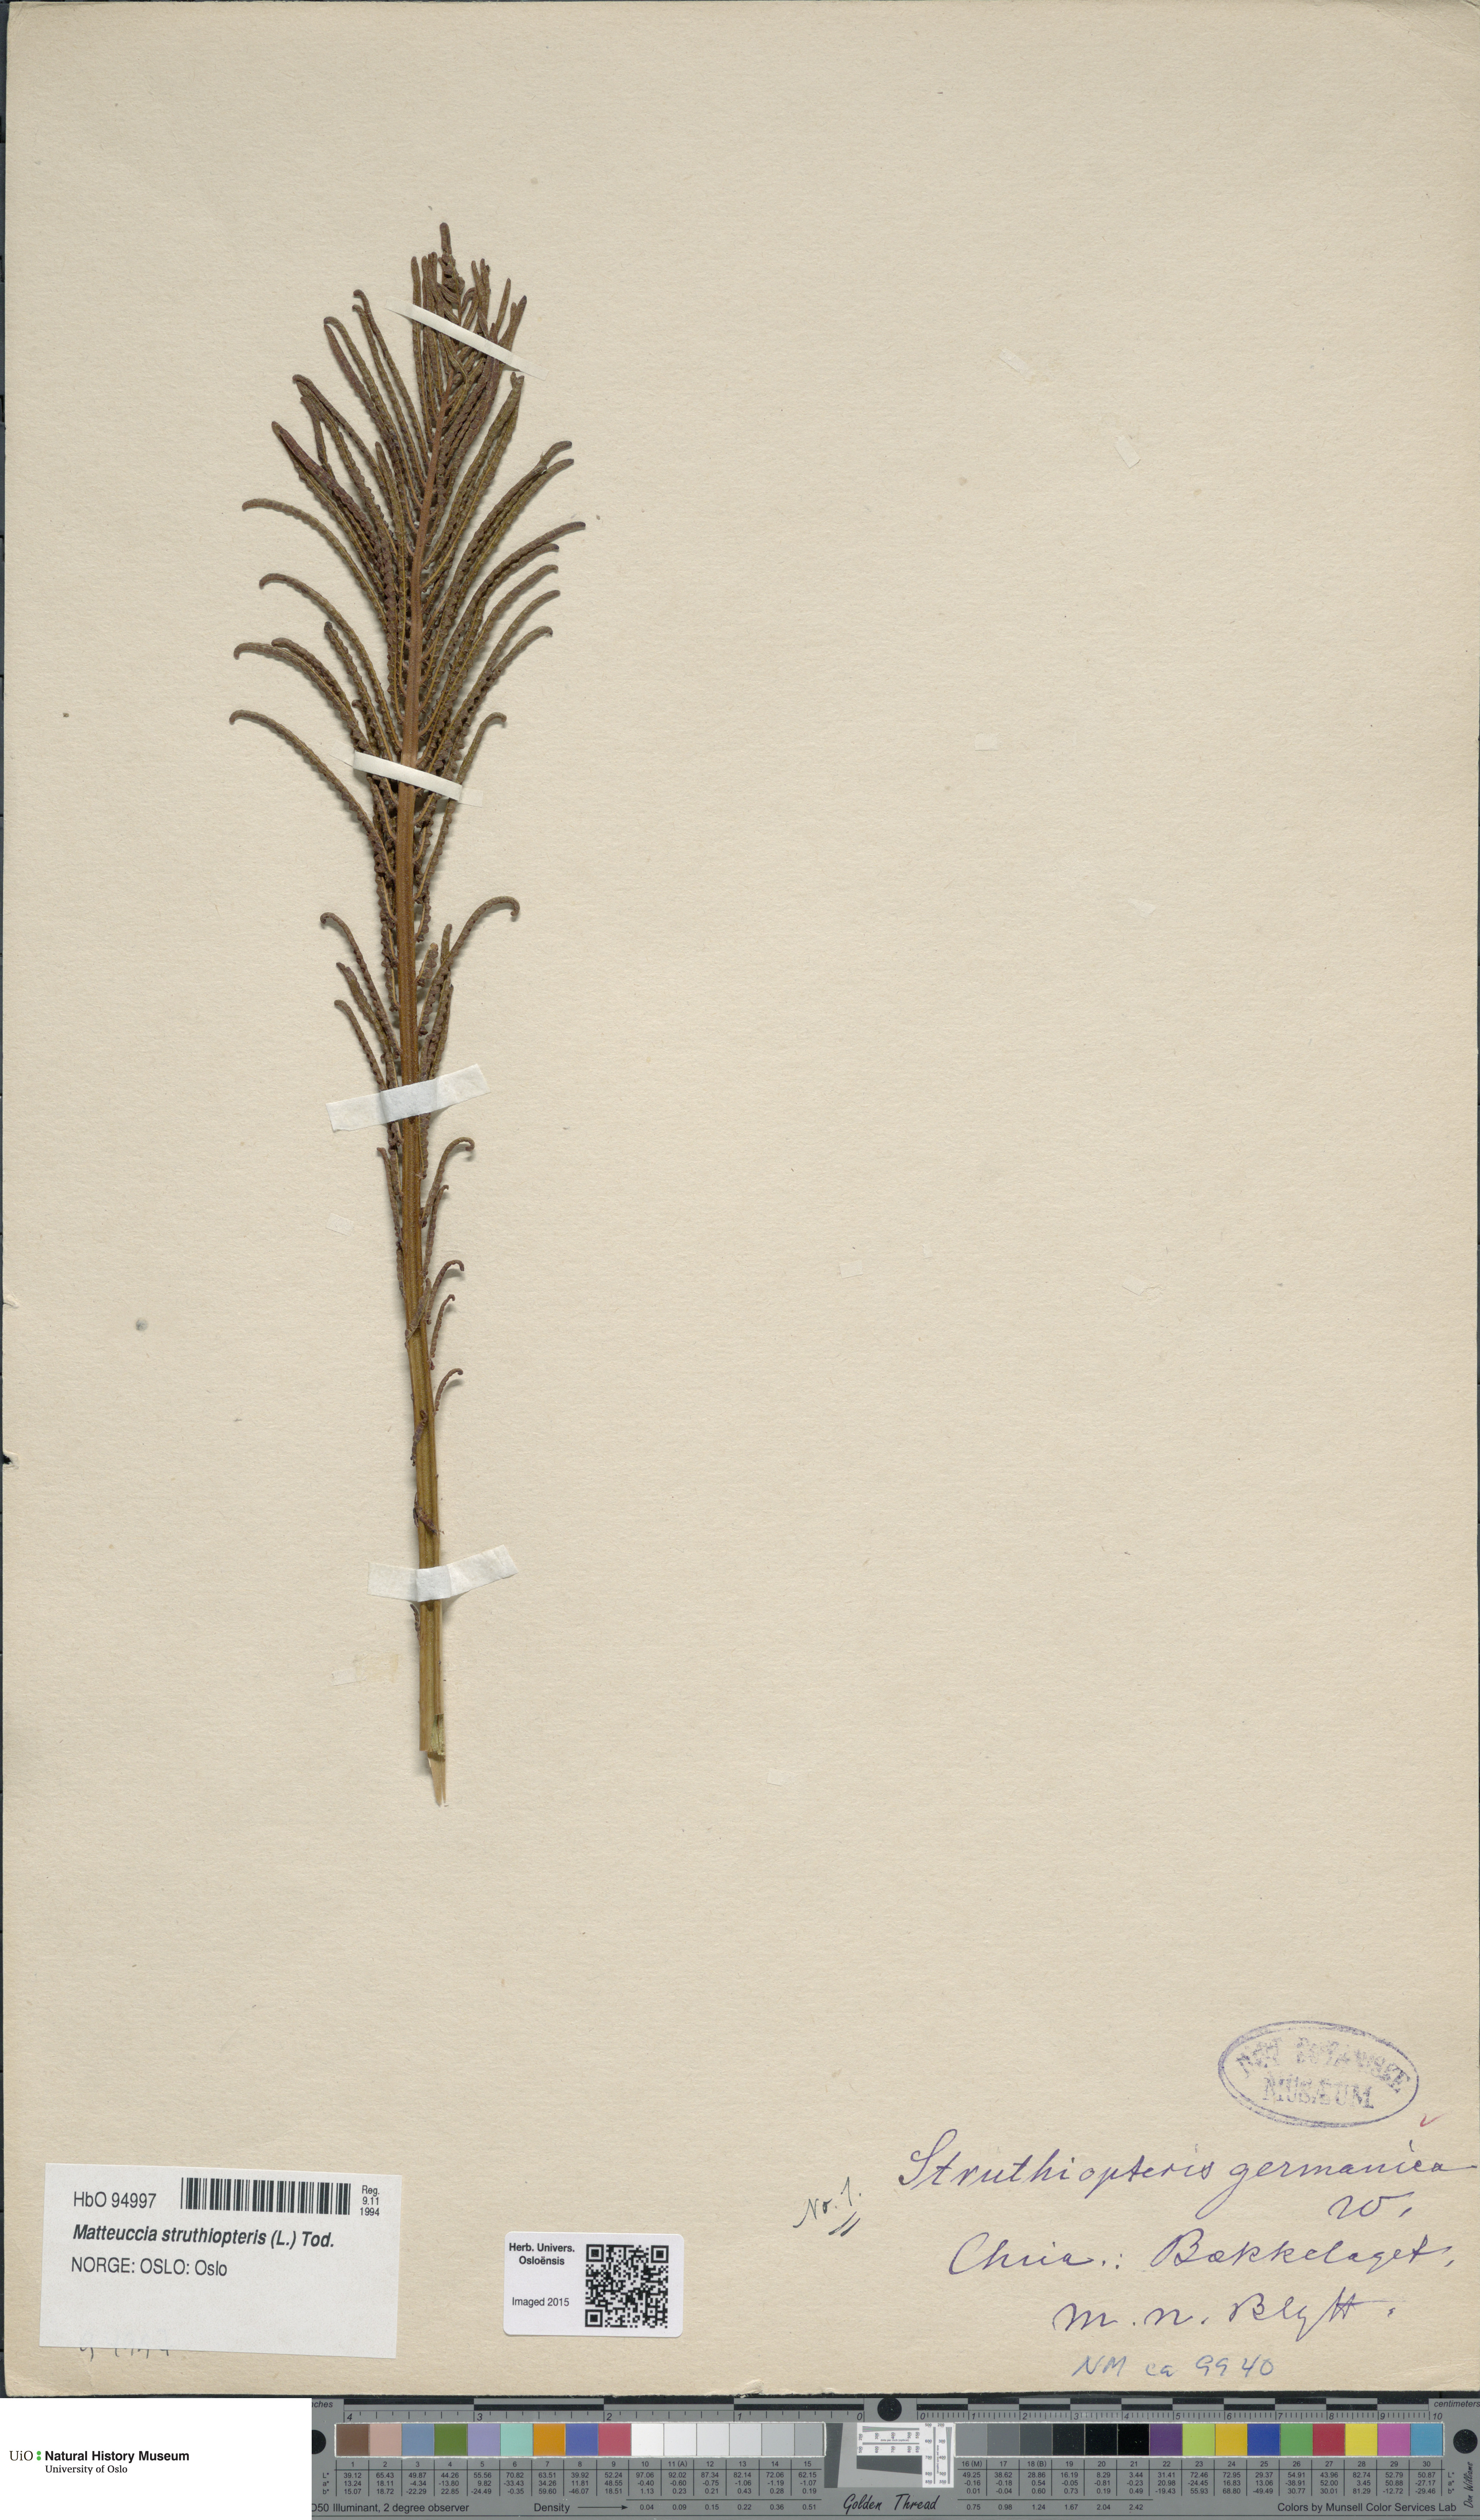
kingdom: Plantae
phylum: Tracheophyta
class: Polypodiopsida
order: Polypodiales
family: Onocleaceae
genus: Matteuccia
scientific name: Matteuccia struthiopteris
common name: Ostrich fern
